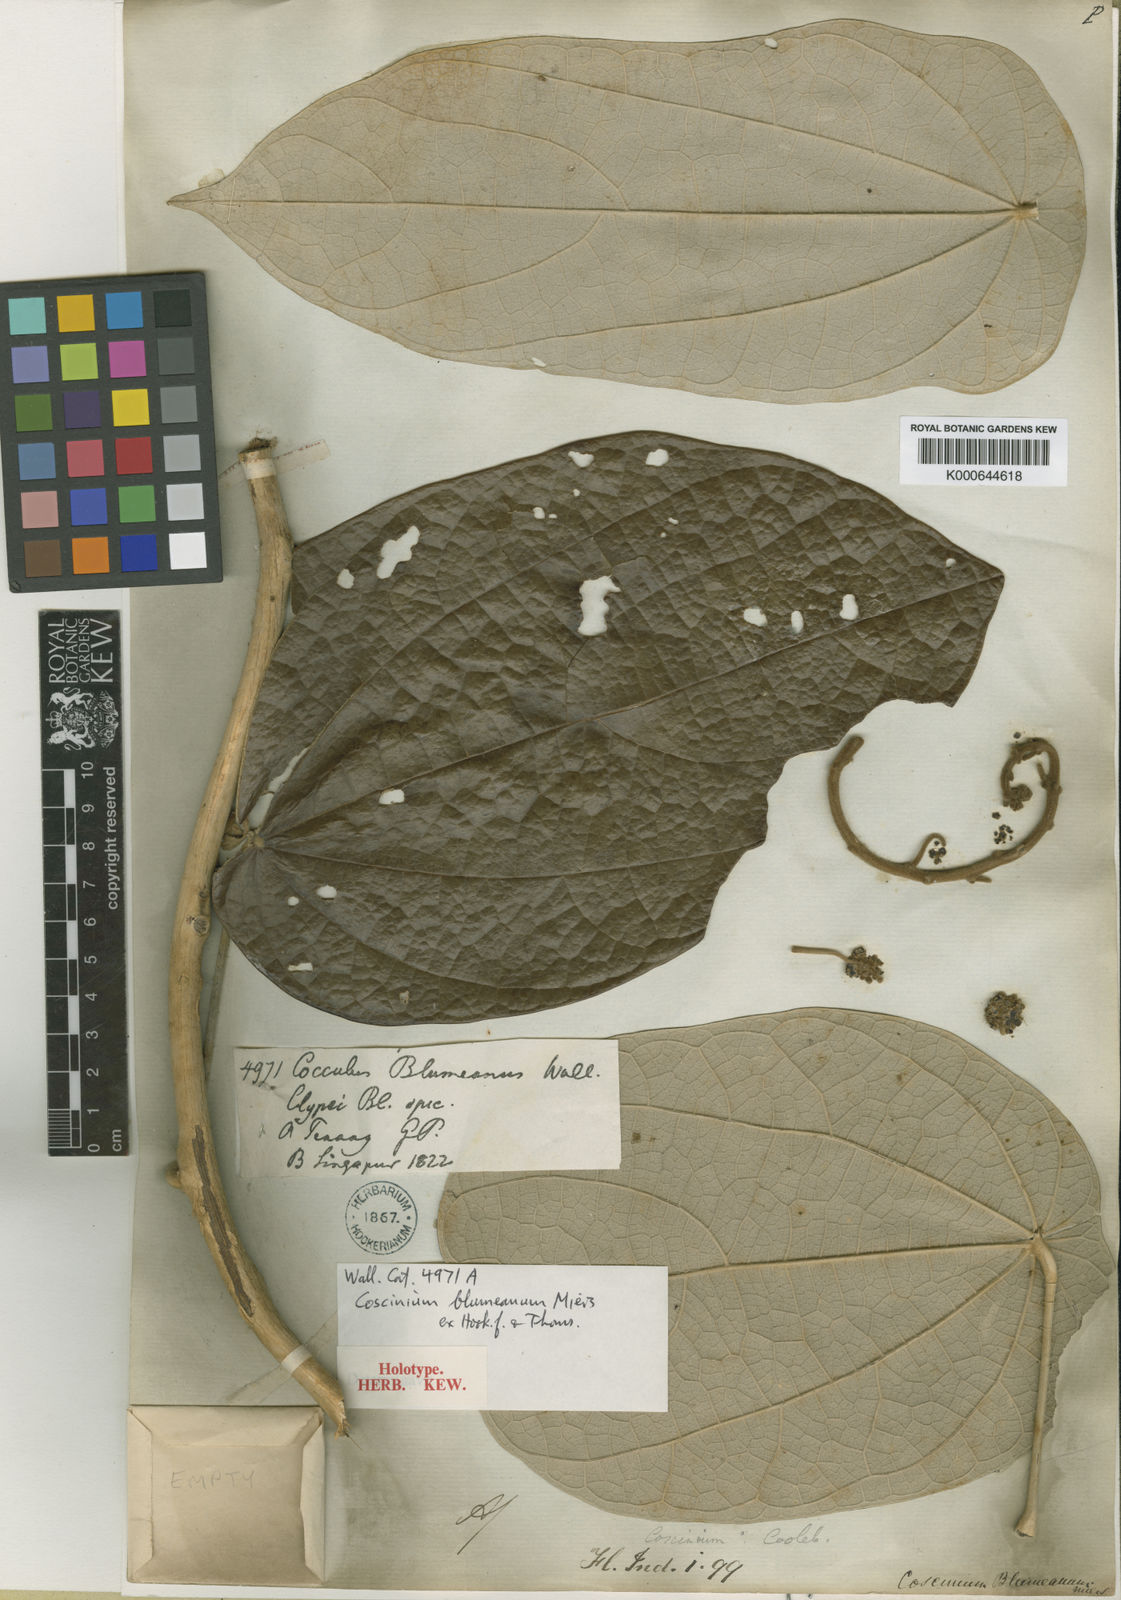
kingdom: Plantae
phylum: Tracheophyta
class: Magnoliopsida
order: Ranunculales
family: Menispermaceae
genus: Coscinium
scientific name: Coscinium blumeanum
